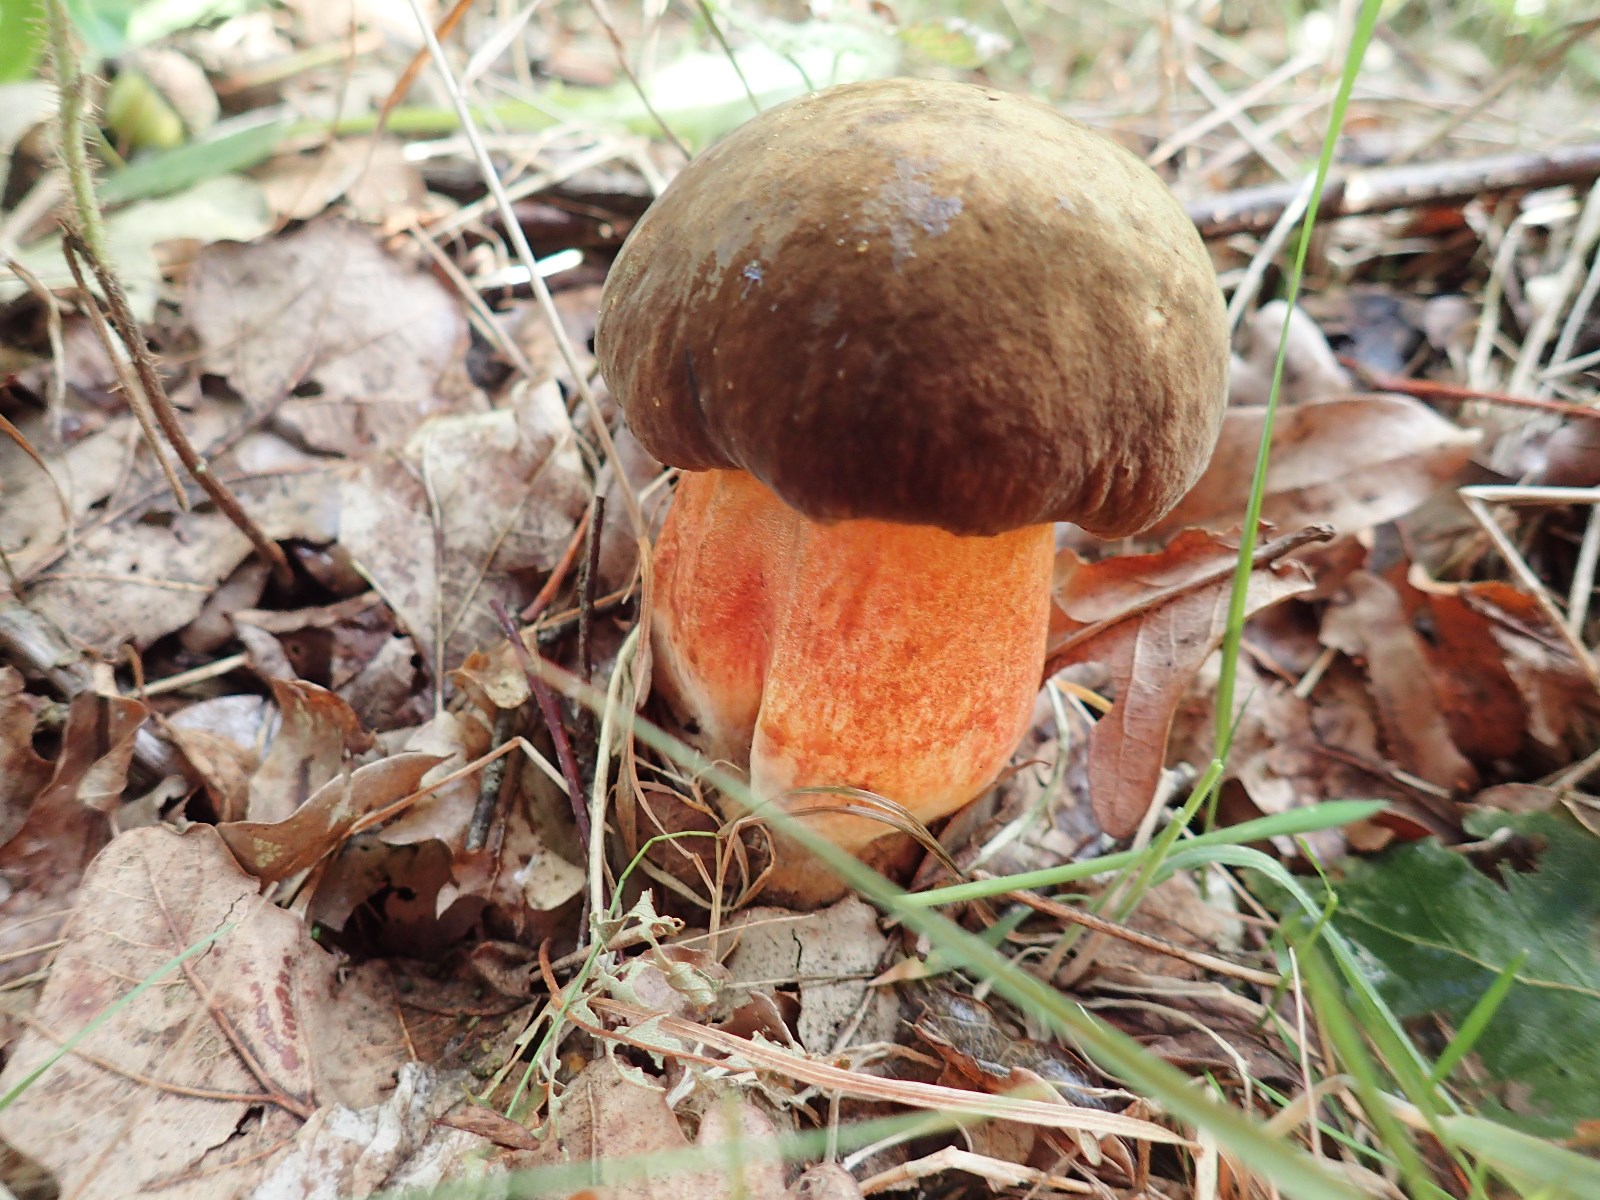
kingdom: Fungi
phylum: Basidiomycota
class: Agaricomycetes
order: Boletales
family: Boletaceae
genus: Neoboletus
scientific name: Neoboletus erythropus
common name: punktstokket indigorørhat
